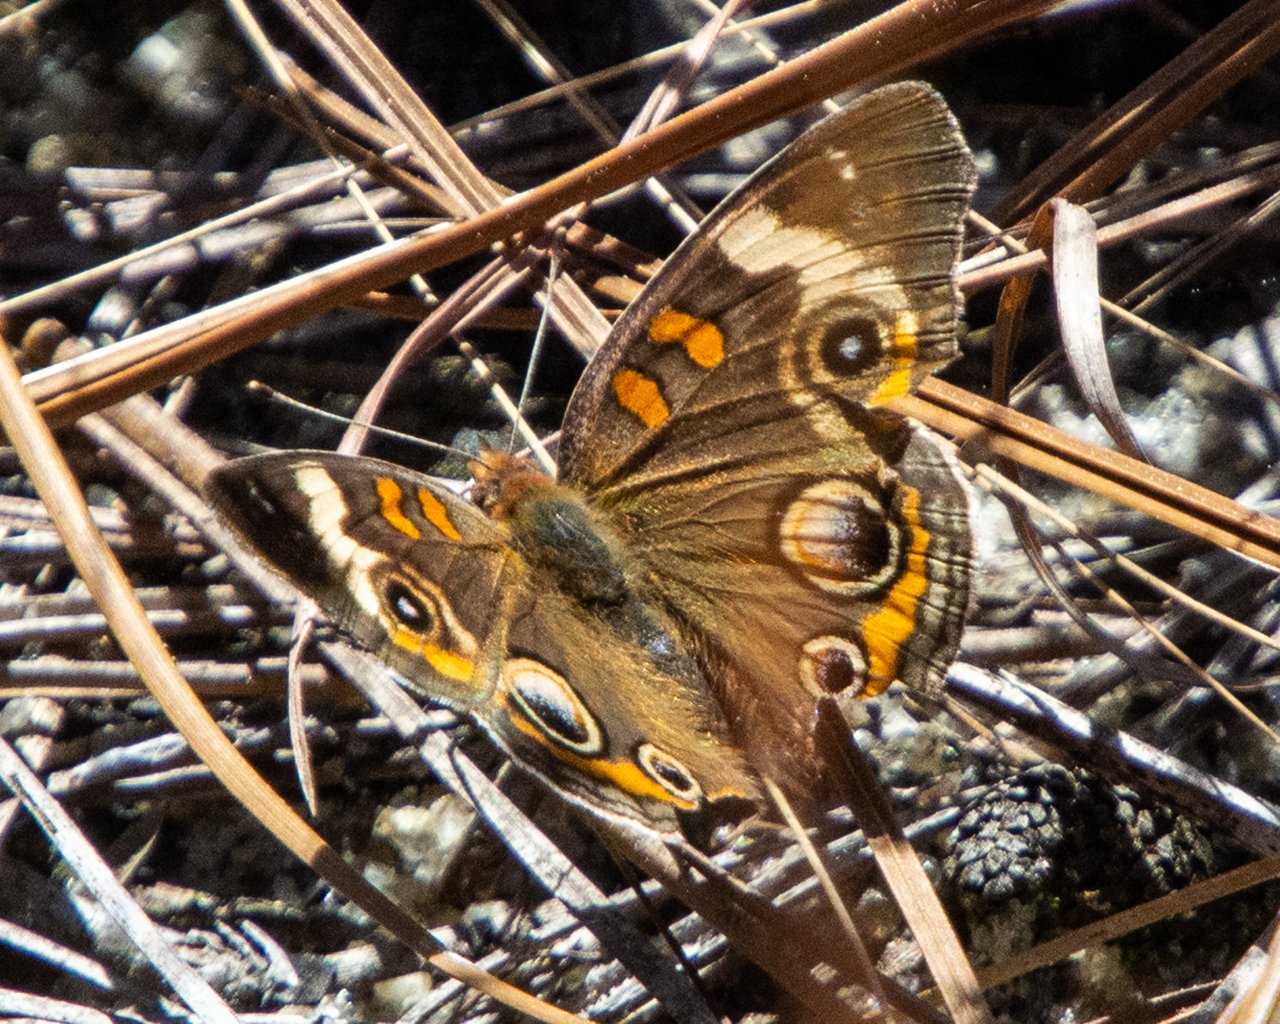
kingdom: Animalia
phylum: Arthropoda
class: Insecta
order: Lepidoptera
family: Nymphalidae
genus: Junonia
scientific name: Junonia coenia
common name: Common Buckeye
